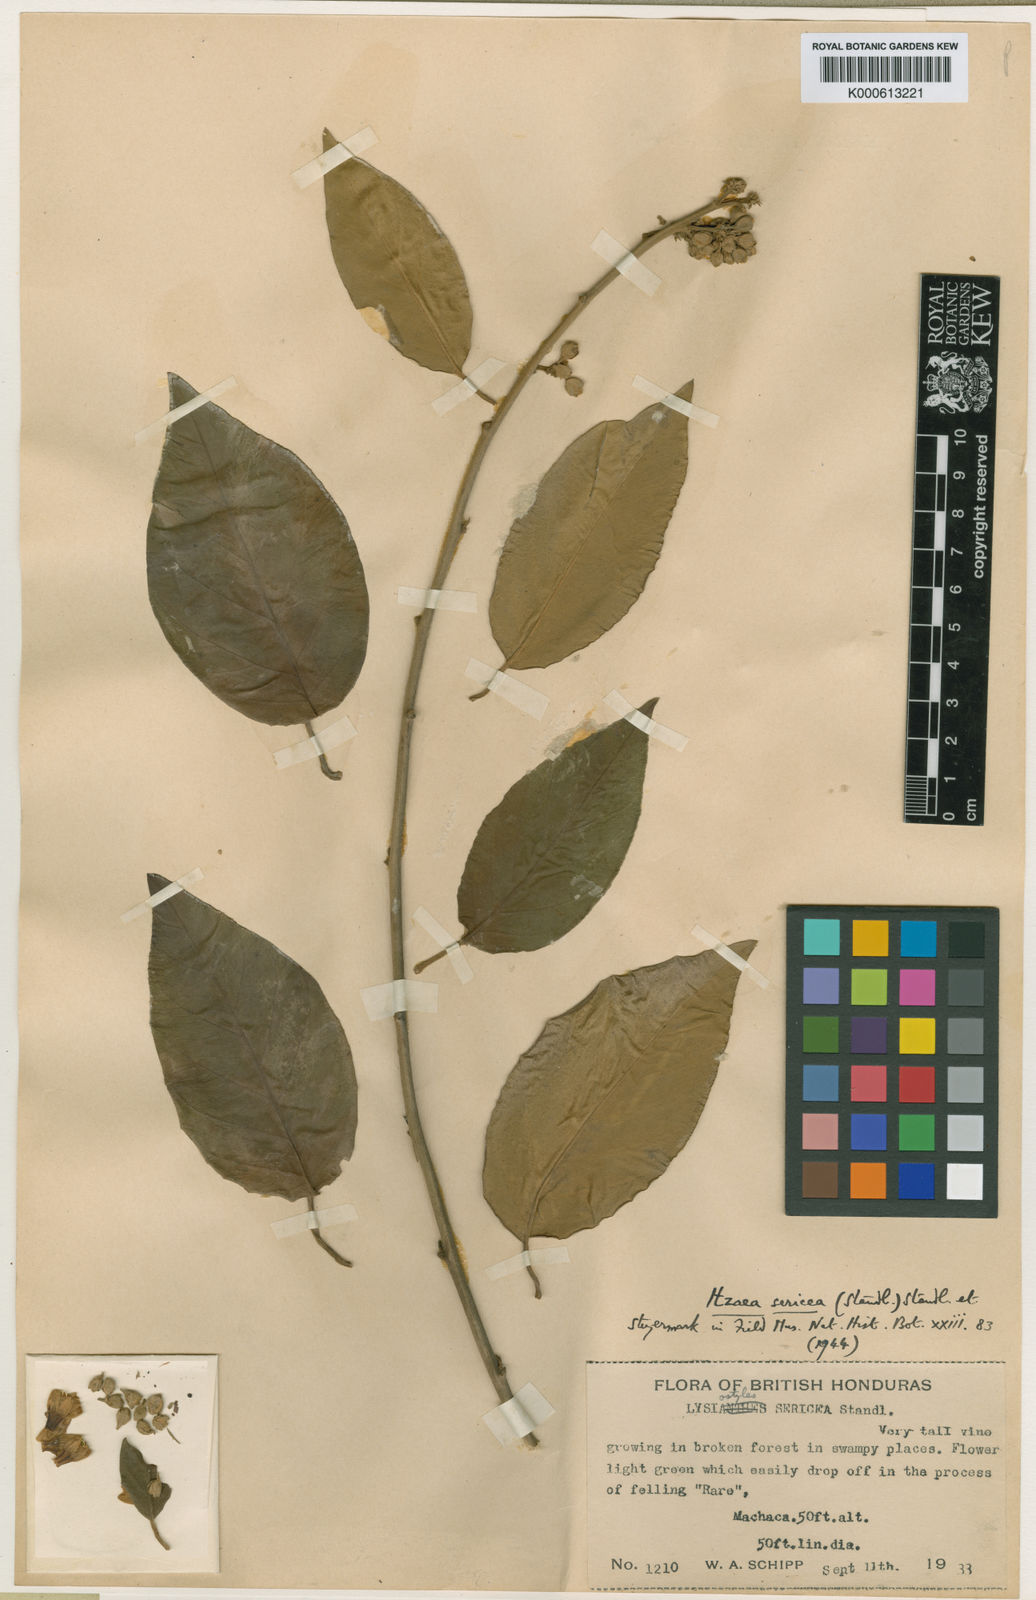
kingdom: Plantae
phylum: Tracheophyta
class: Magnoliopsida
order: Solanales
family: Convolvulaceae
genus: Itzaea
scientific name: Itzaea sericea
